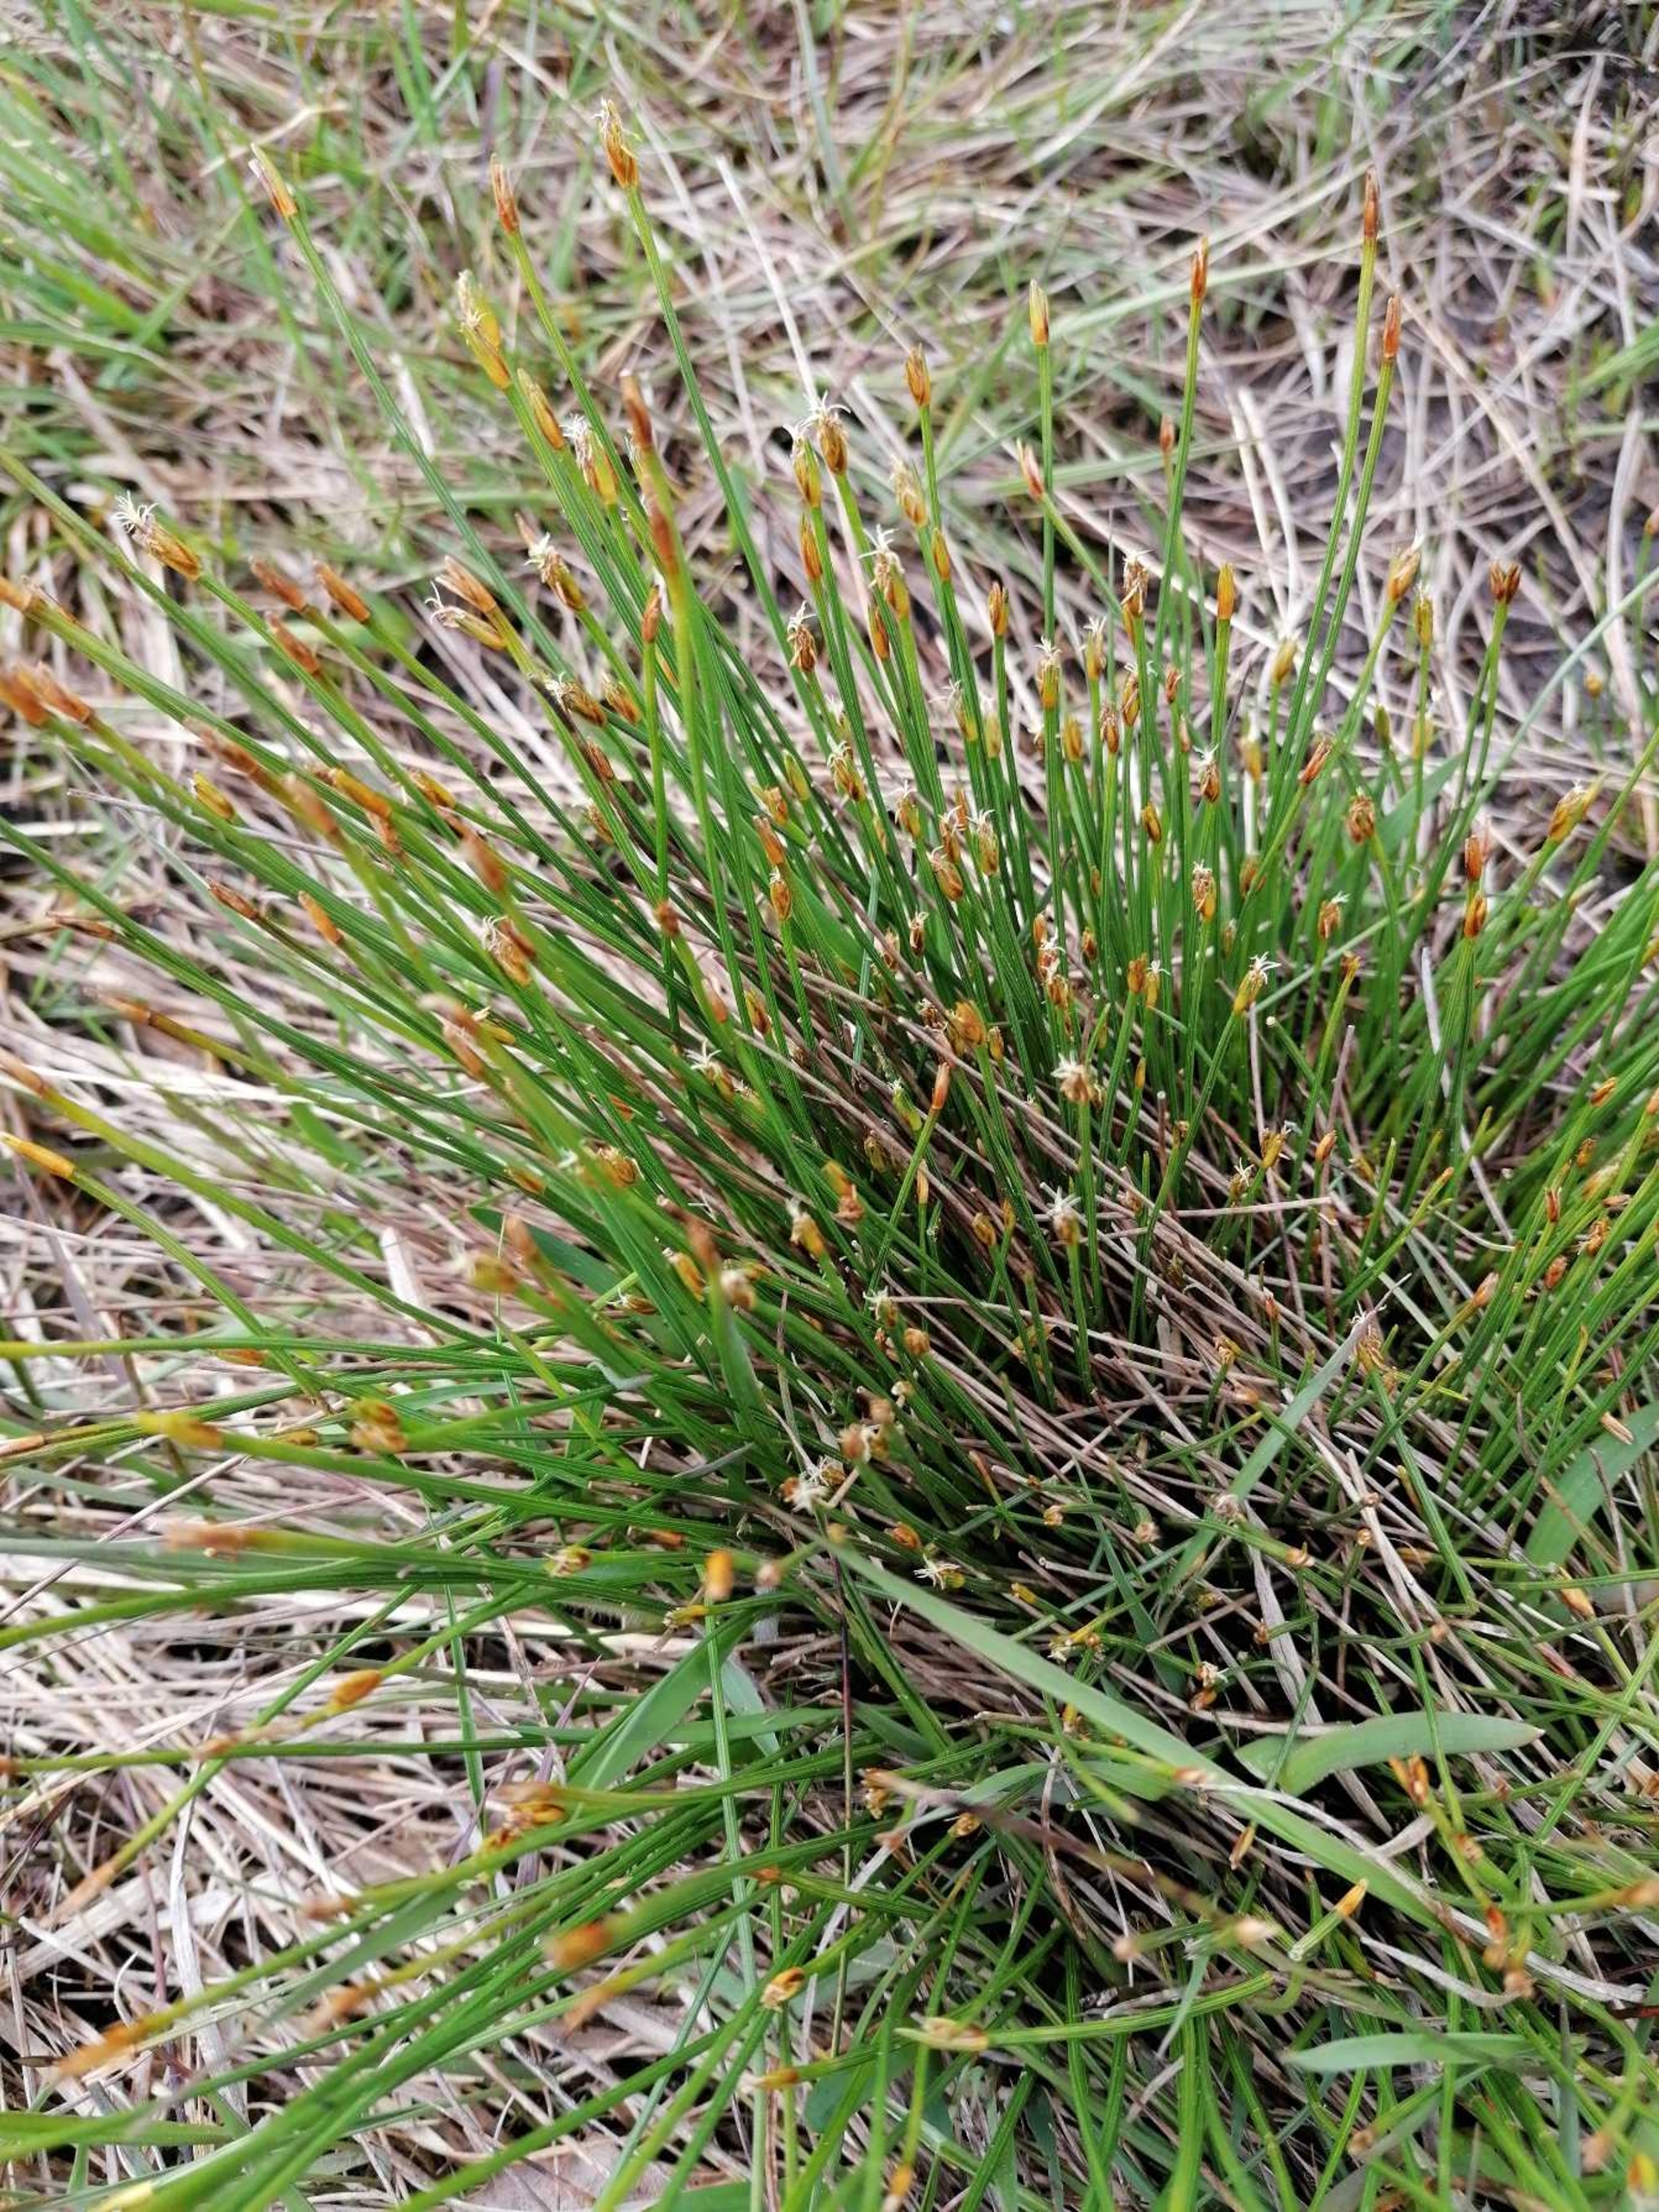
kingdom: Plantae
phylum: Tracheophyta
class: Liliopsida
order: Poales
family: Cyperaceae
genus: Trichophorum
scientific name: Trichophorum cespitosum
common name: Tuekogleaks
